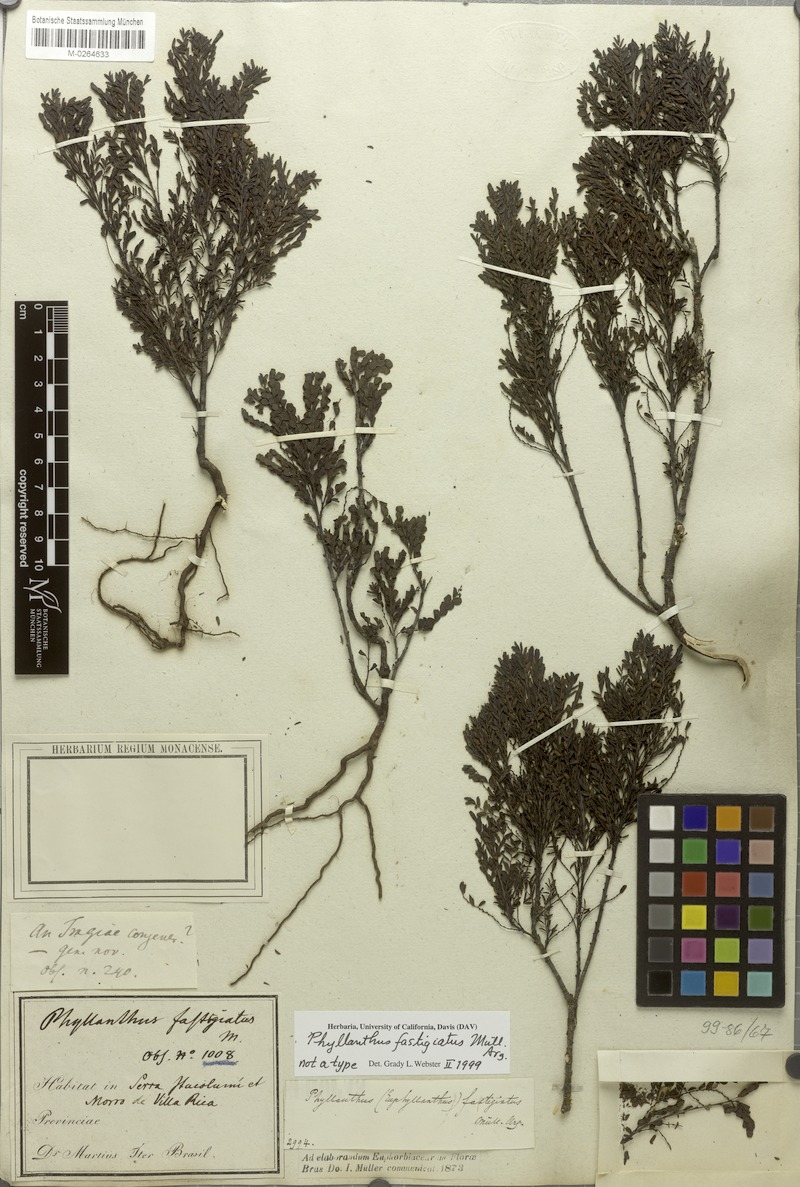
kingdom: Plantae
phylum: Tracheophyta
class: Magnoliopsida
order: Malpighiales
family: Phyllanthaceae
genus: Phyllanthus
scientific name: Phyllanthus fastigiatus
